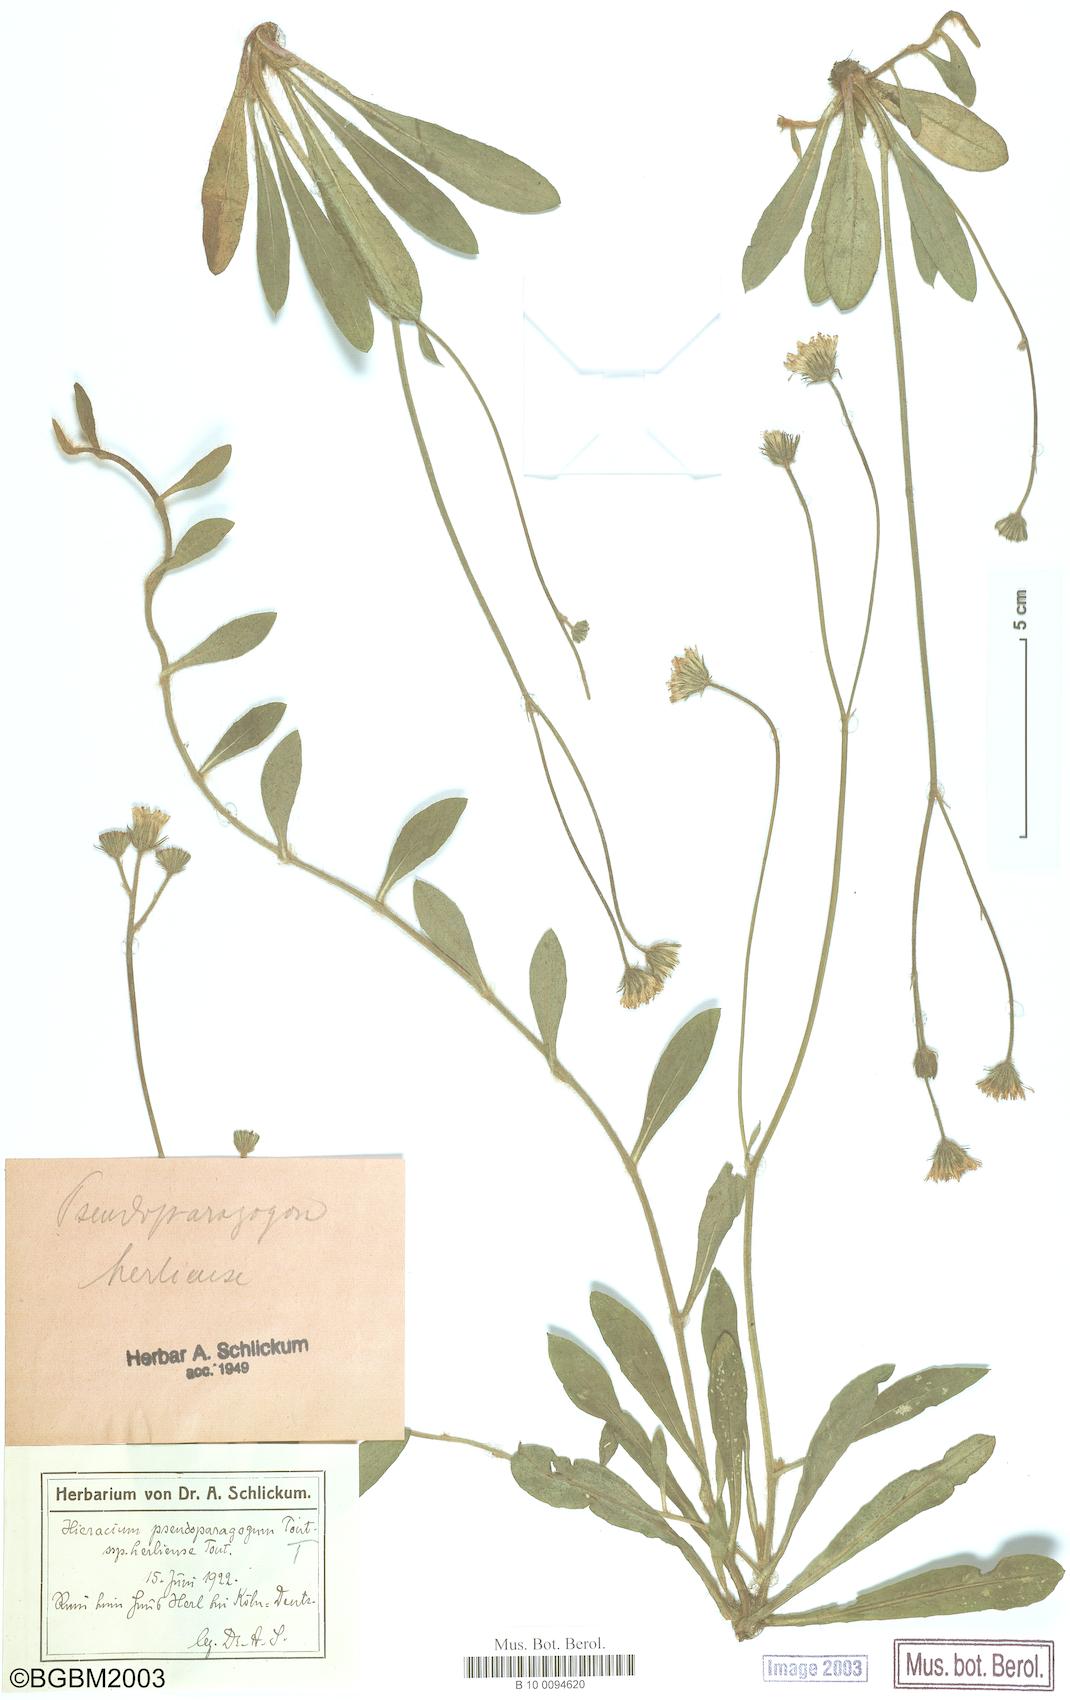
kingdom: Plantae
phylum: Tracheophyta
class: Magnoliopsida
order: Asterales
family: Asteraceae
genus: Pilosella
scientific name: Pilosella pseudoparagoga
